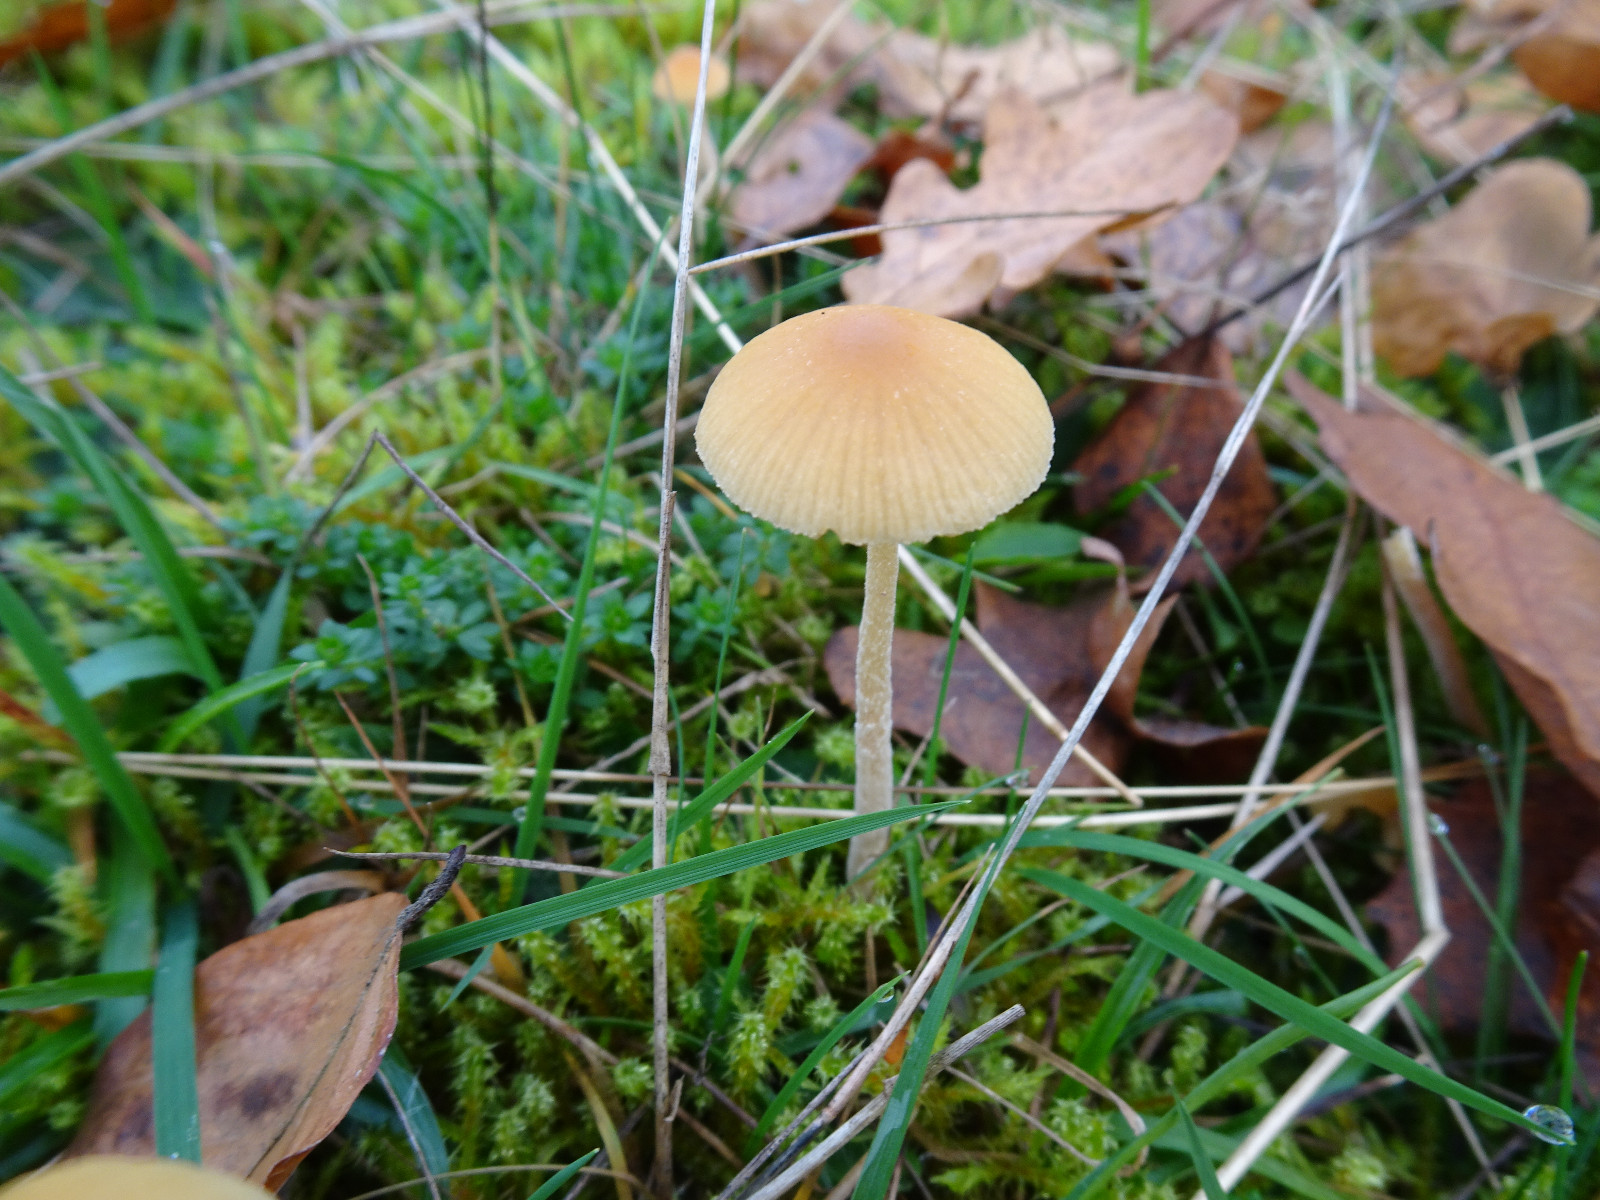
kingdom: Fungi
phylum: Basidiomycota
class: Agaricomycetes
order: Agaricales
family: Hymenogastraceae
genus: Galerina
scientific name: Galerina
